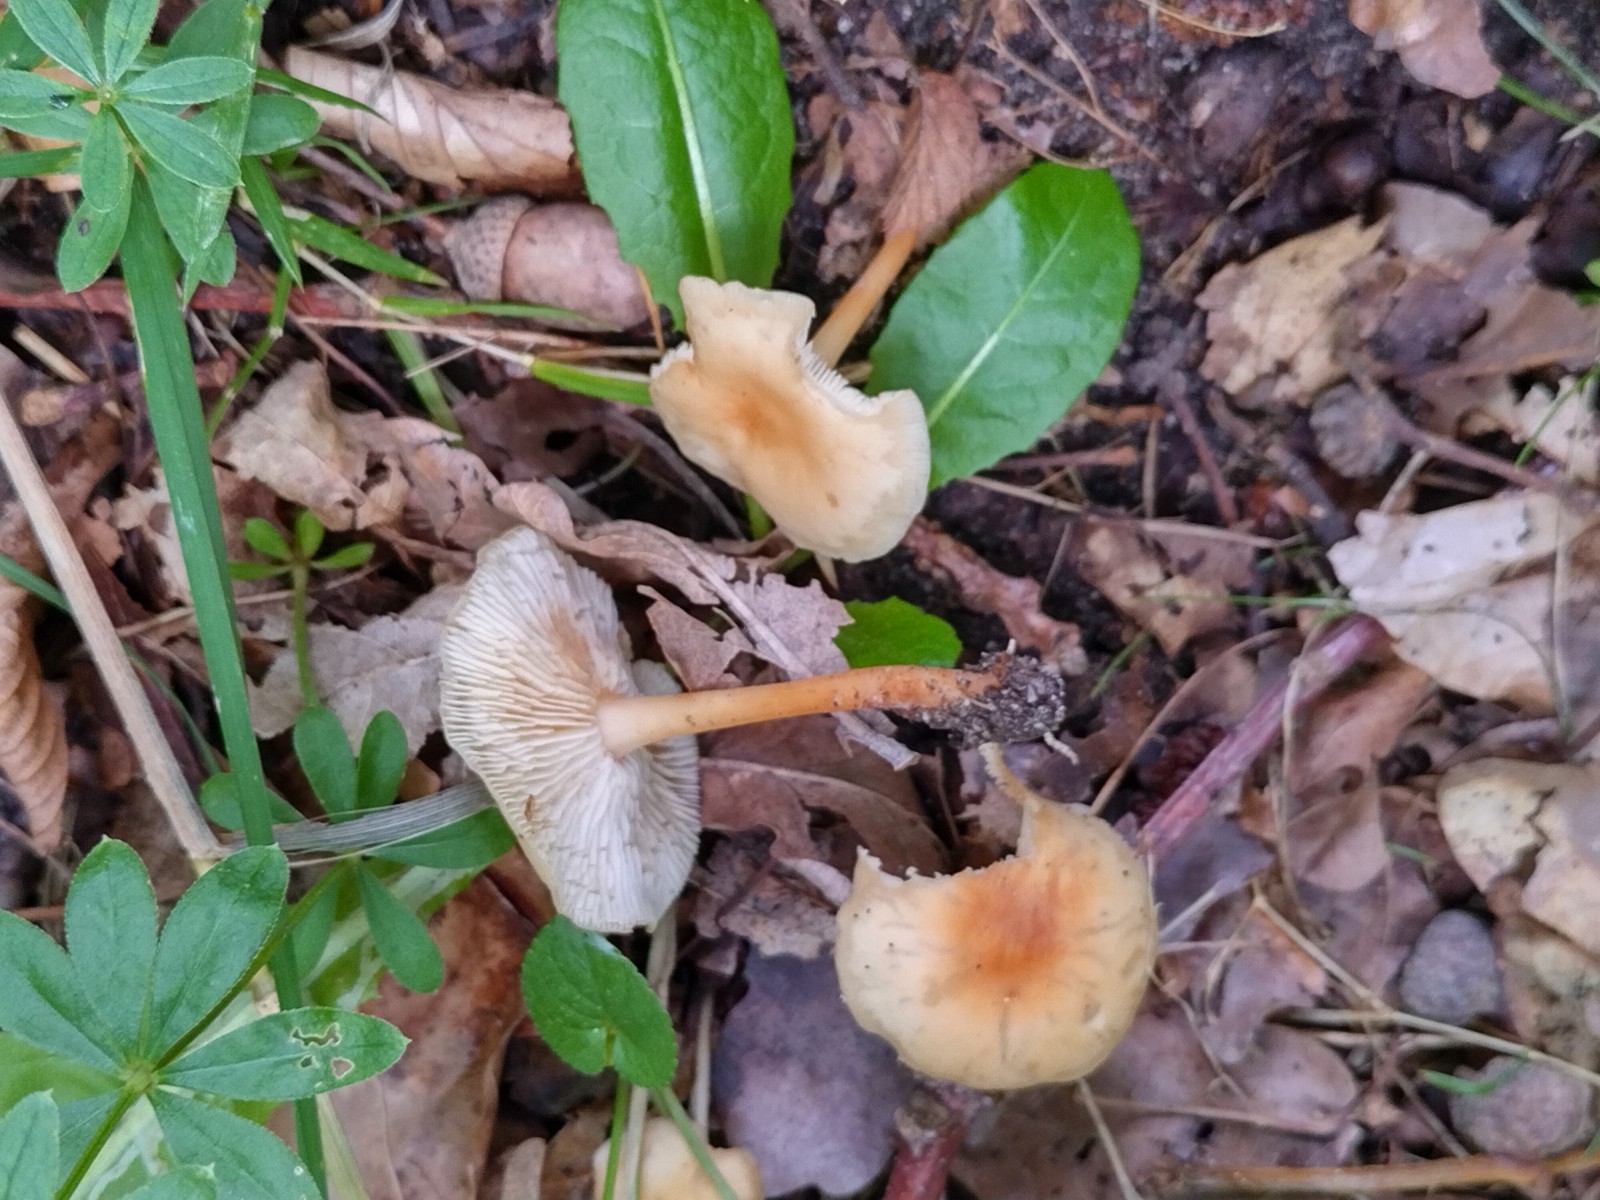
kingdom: Fungi
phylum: Basidiomycota
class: Agaricomycetes
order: Agaricales
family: Omphalotaceae
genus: Gymnopus
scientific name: Gymnopus dryophilus
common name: løv-fladhat
